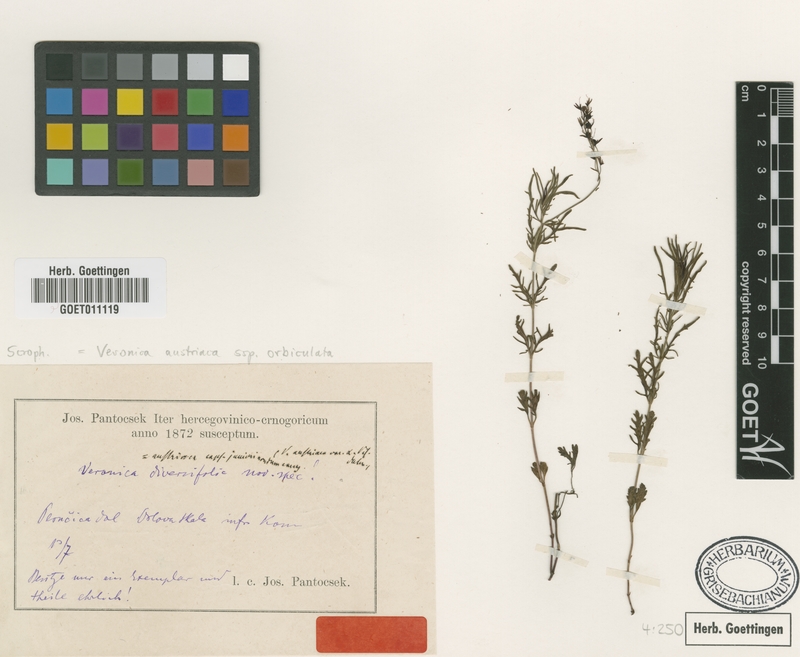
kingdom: Plantae
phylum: Tracheophyta
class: Magnoliopsida
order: Lamiales
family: Plantaginaceae
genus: Veronica
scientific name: Veronica austriaca
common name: Large speedwell
